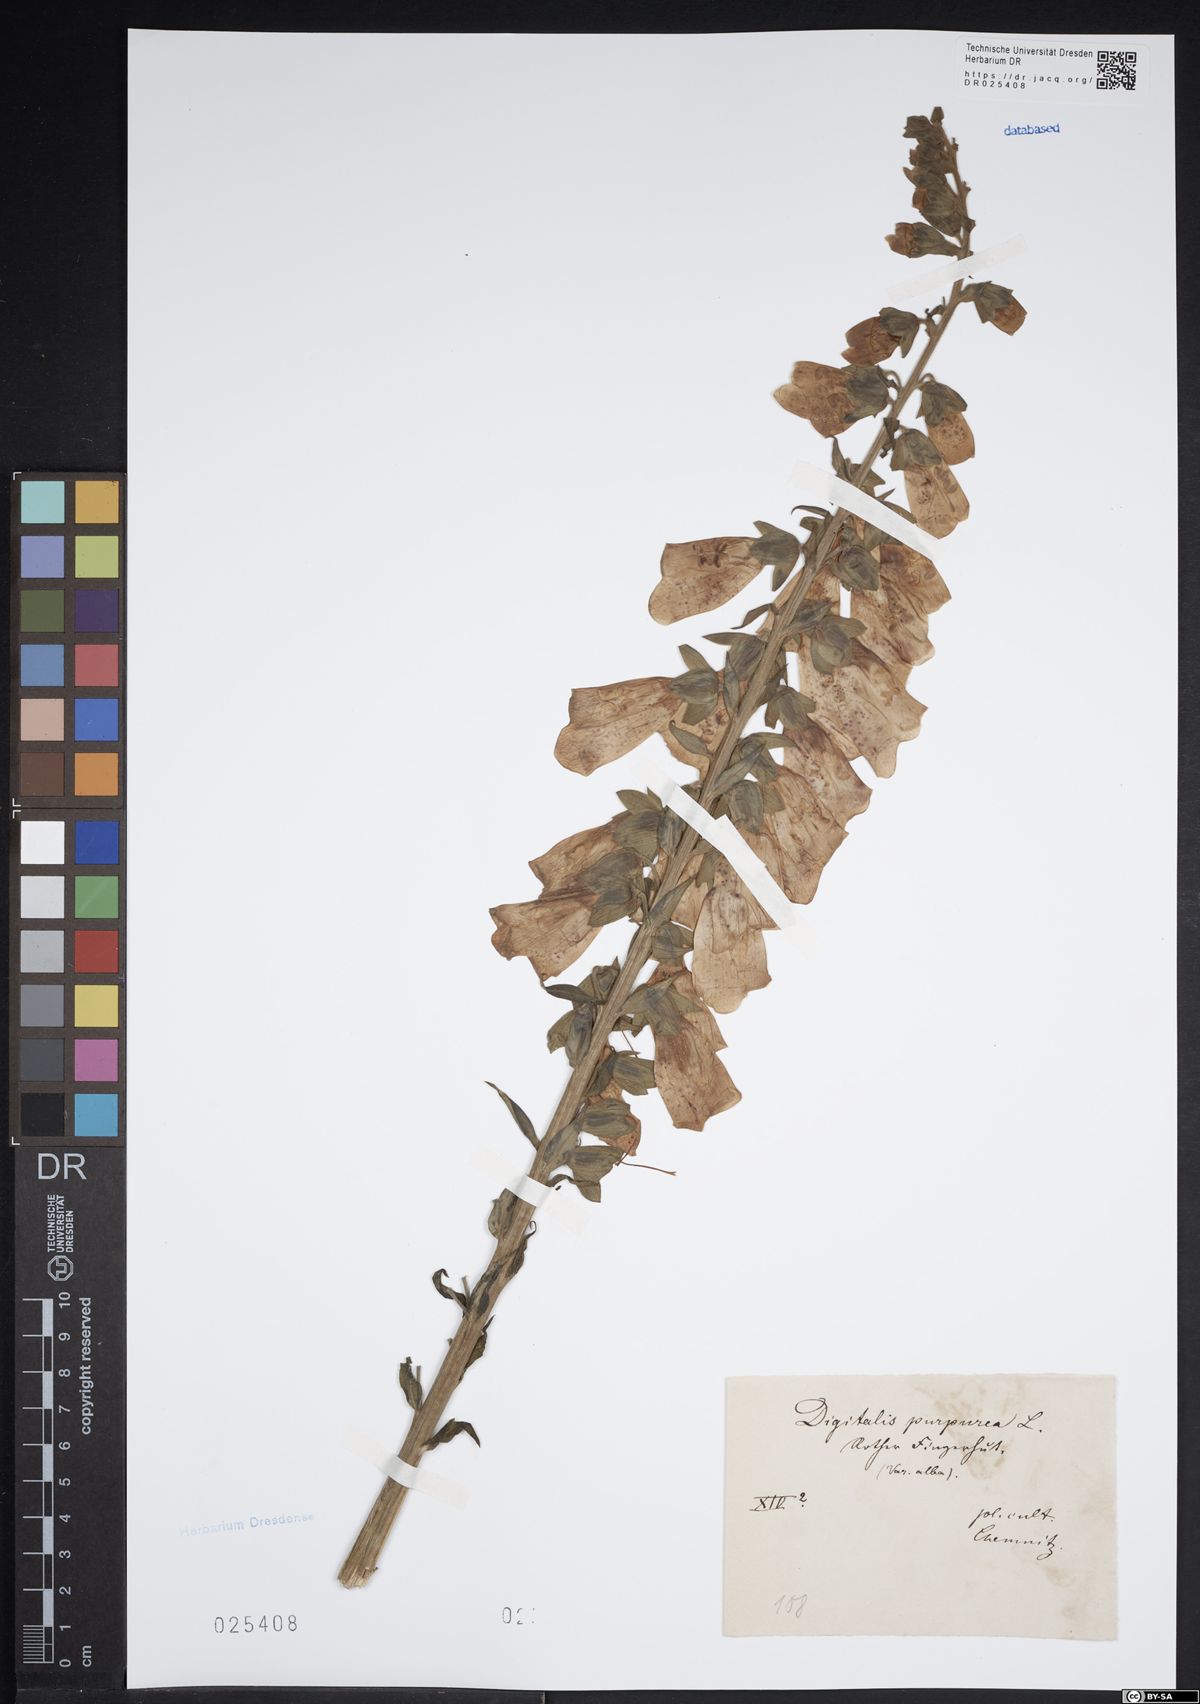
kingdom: Plantae
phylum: Tracheophyta
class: Magnoliopsida
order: Lamiales
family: Plantaginaceae
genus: Digitalis
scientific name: Digitalis purpurea
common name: Foxglove
